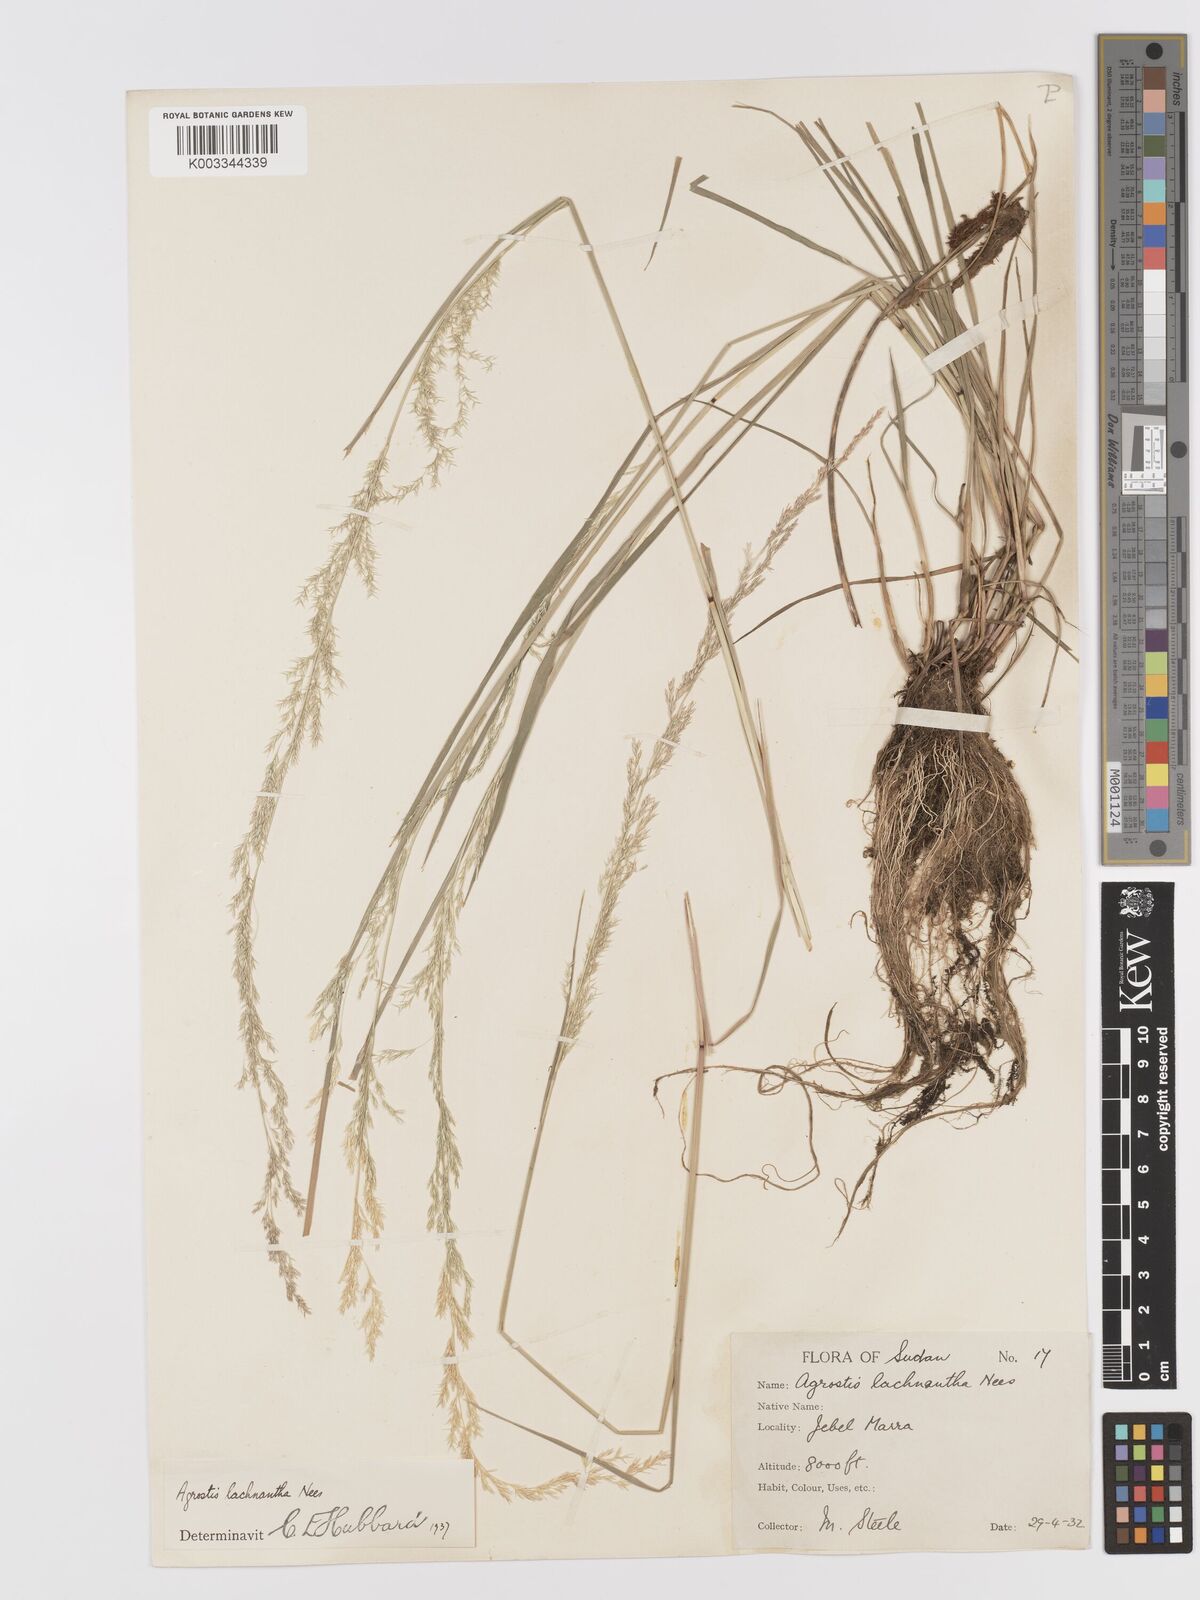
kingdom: Plantae
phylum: Tracheophyta
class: Liliopsida
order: Poales
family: Poaceae
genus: Lachnagrostis
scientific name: Lachnagrostis lachnantha
